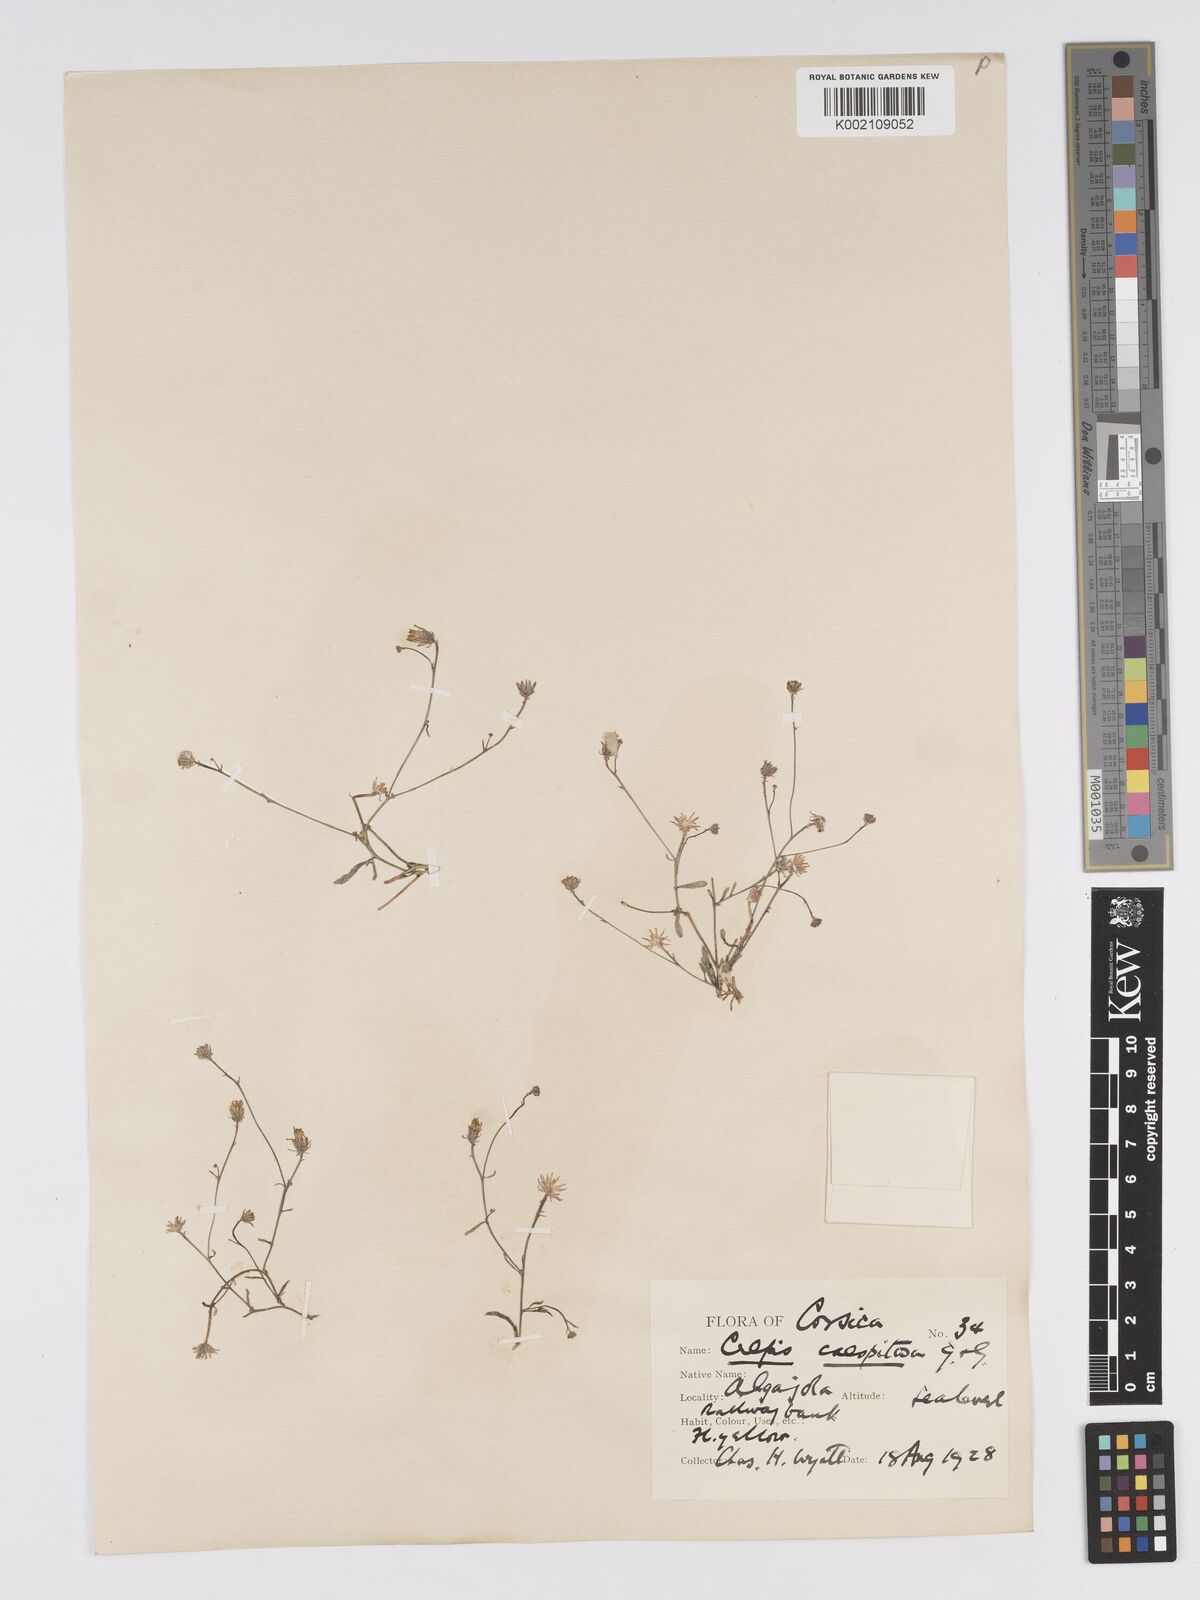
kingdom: Plantae
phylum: Tracheophyta
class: Magnoliopsida
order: Asterales
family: Asteraceae
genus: Crepis
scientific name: Crepis bellidifolia
